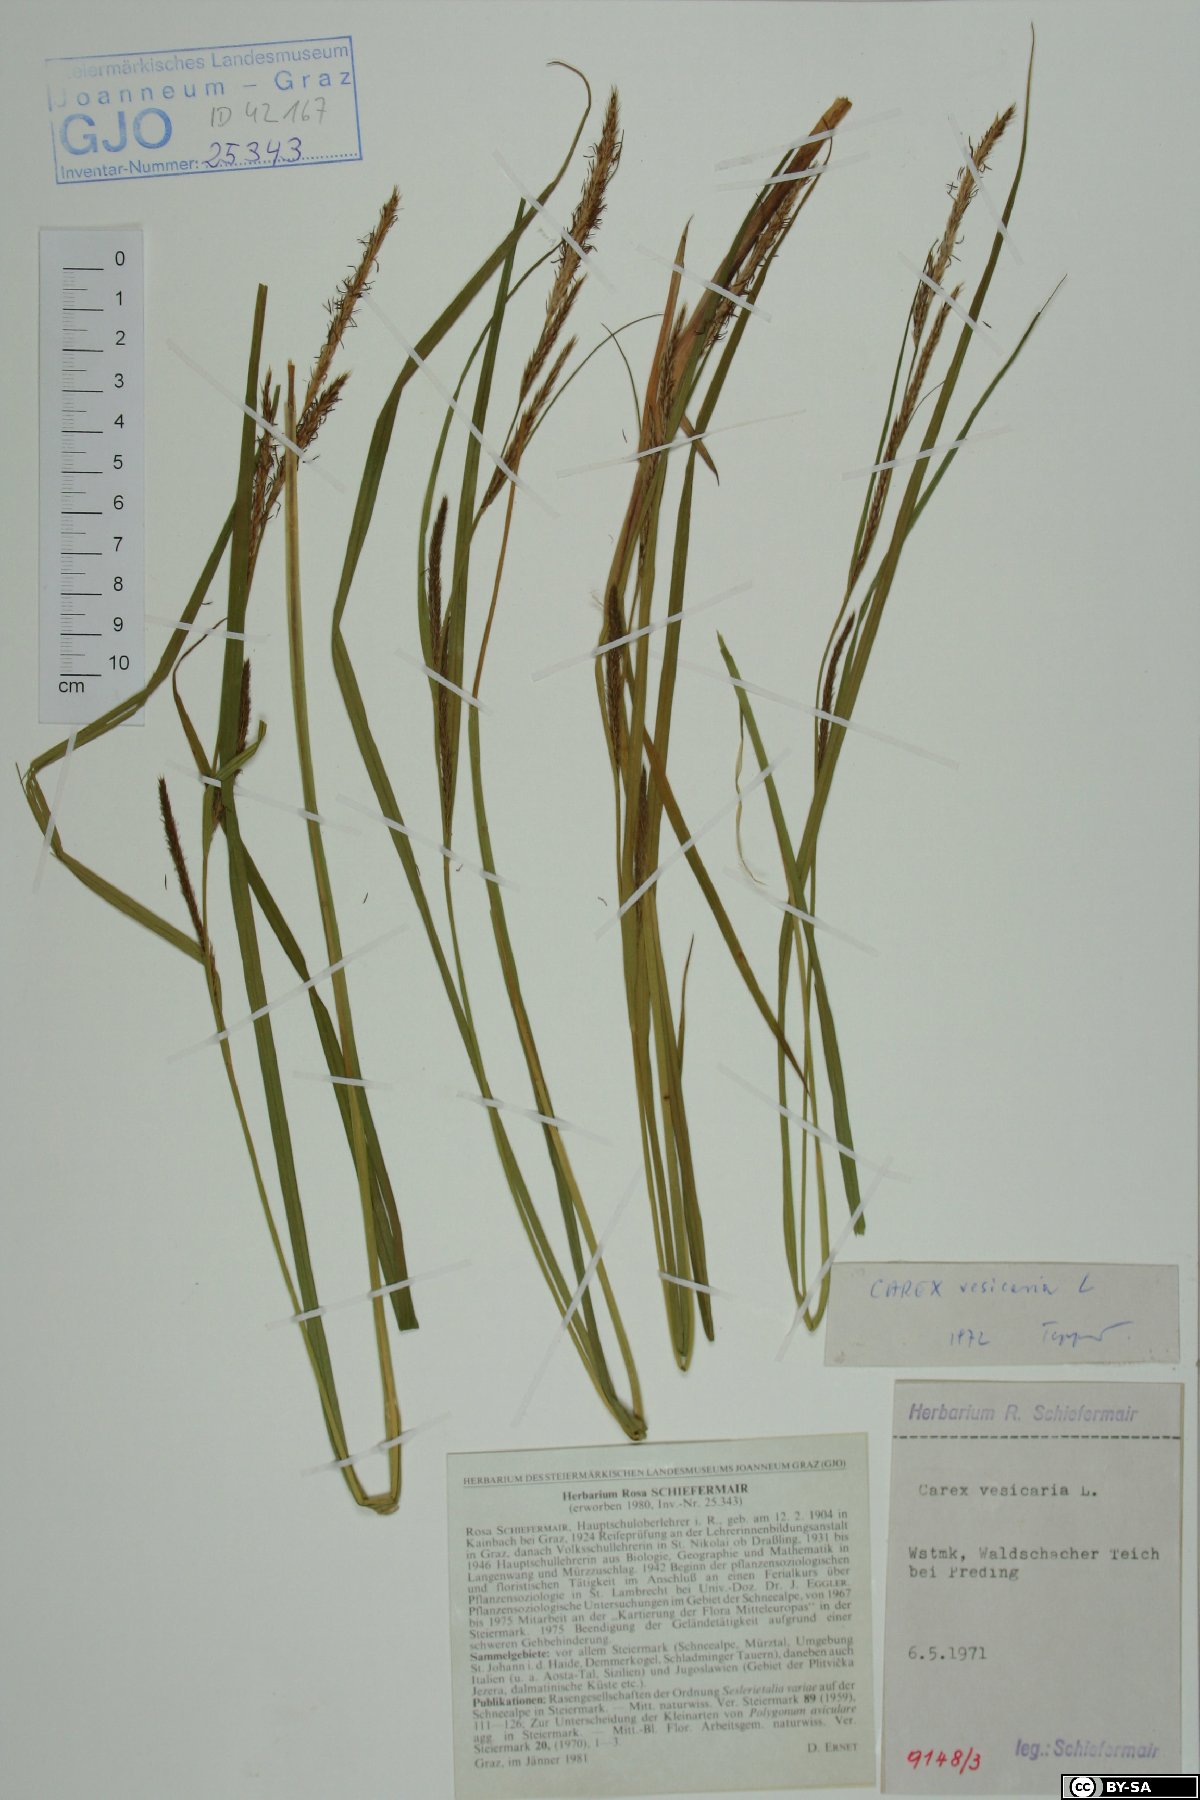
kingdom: Plantae
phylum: Tracheophyta
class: Liliopsida
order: Poales
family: Cyperaceae
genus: Carex
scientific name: Carex vesicaria
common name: Bladder-sedge
